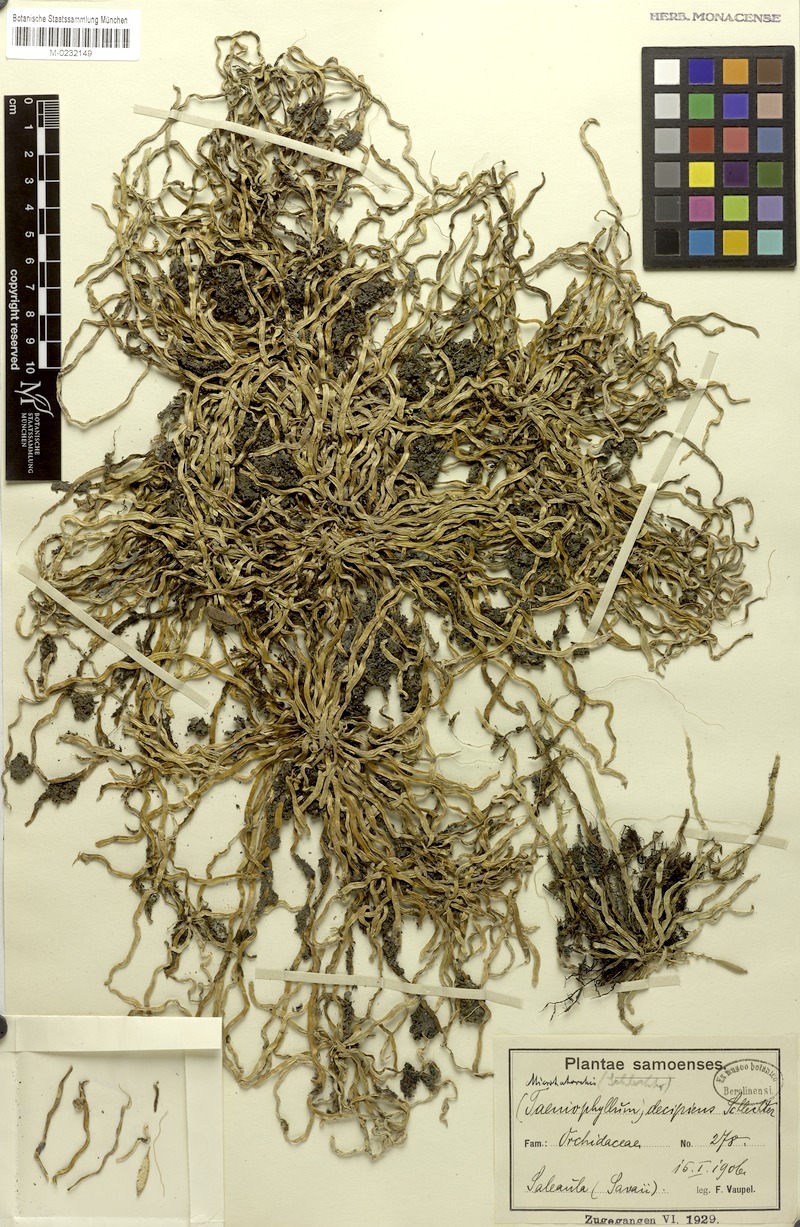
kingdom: Plantae
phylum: Tracheophyta
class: Liliopsida
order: Asparagales
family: Orchidaceae
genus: Taeniophyllum
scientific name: Taeniophyllum fasciola
